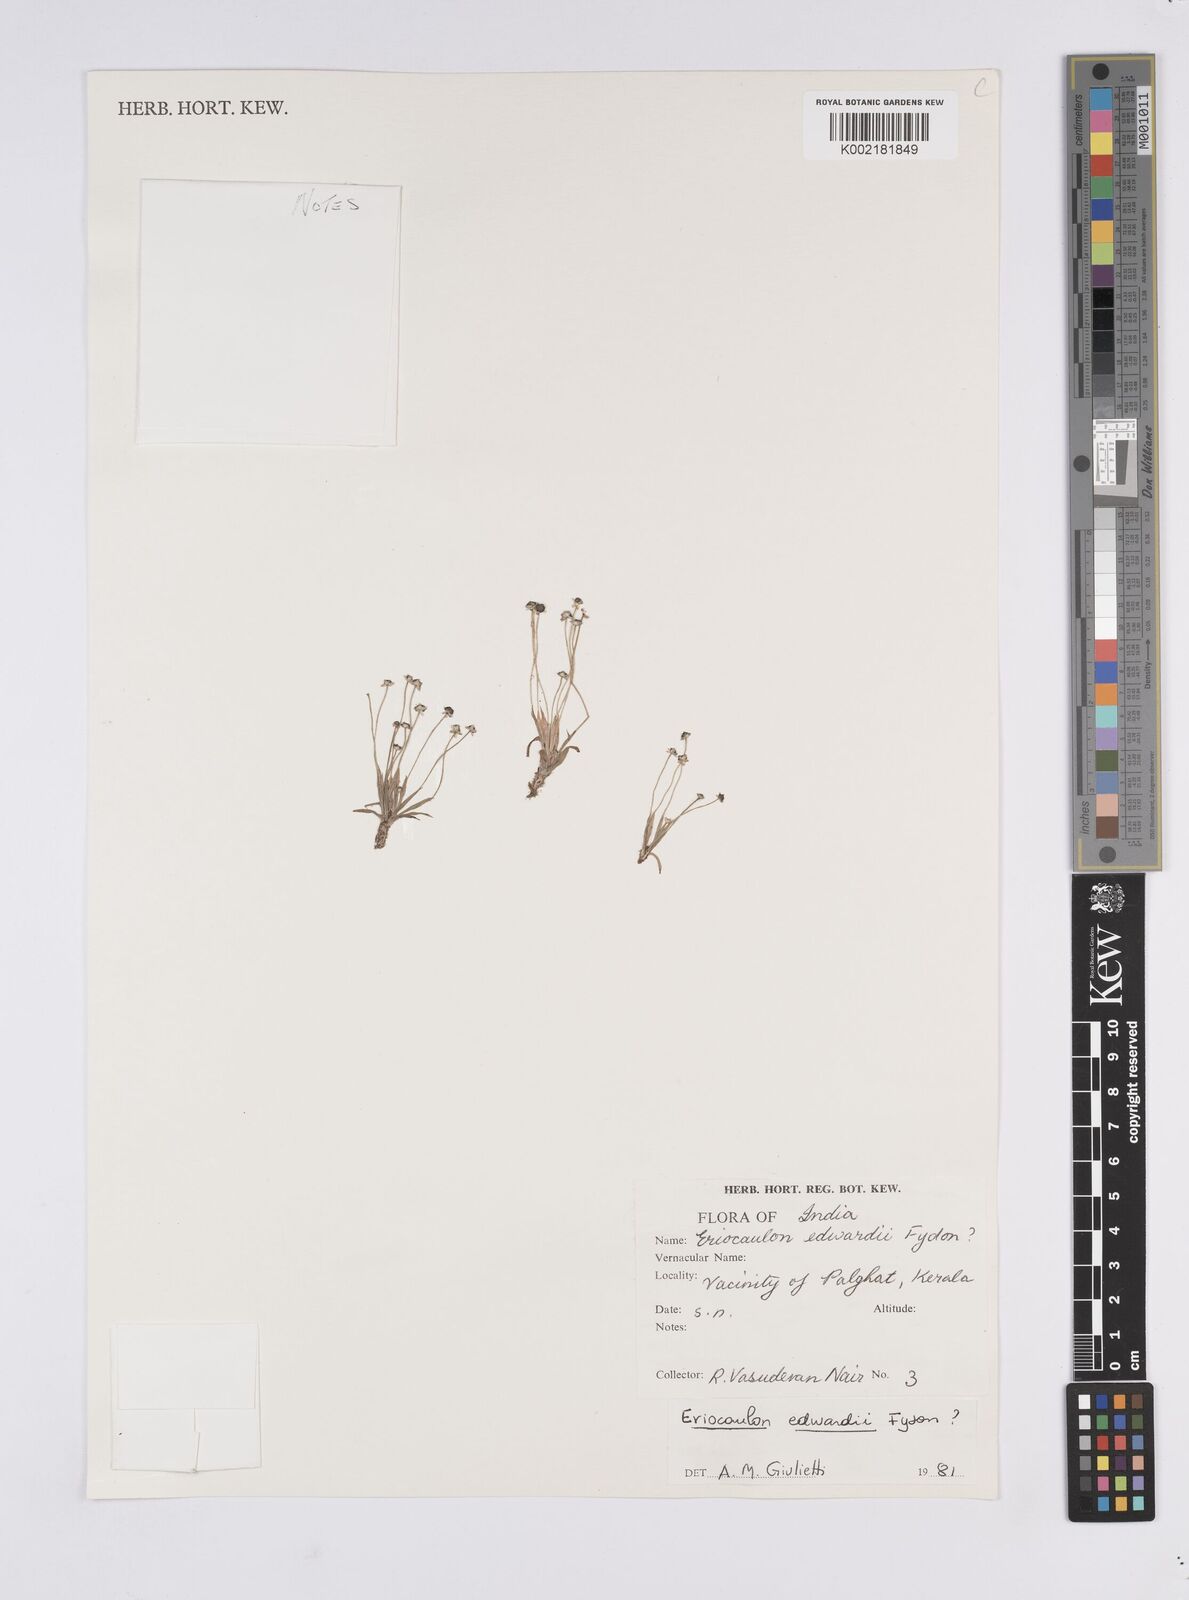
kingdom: Plantae
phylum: Tracheophyta
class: Liliopsida
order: Poales
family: Eriocaulaceae
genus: Eriocaulon
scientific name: Eriocaulon edwardii
